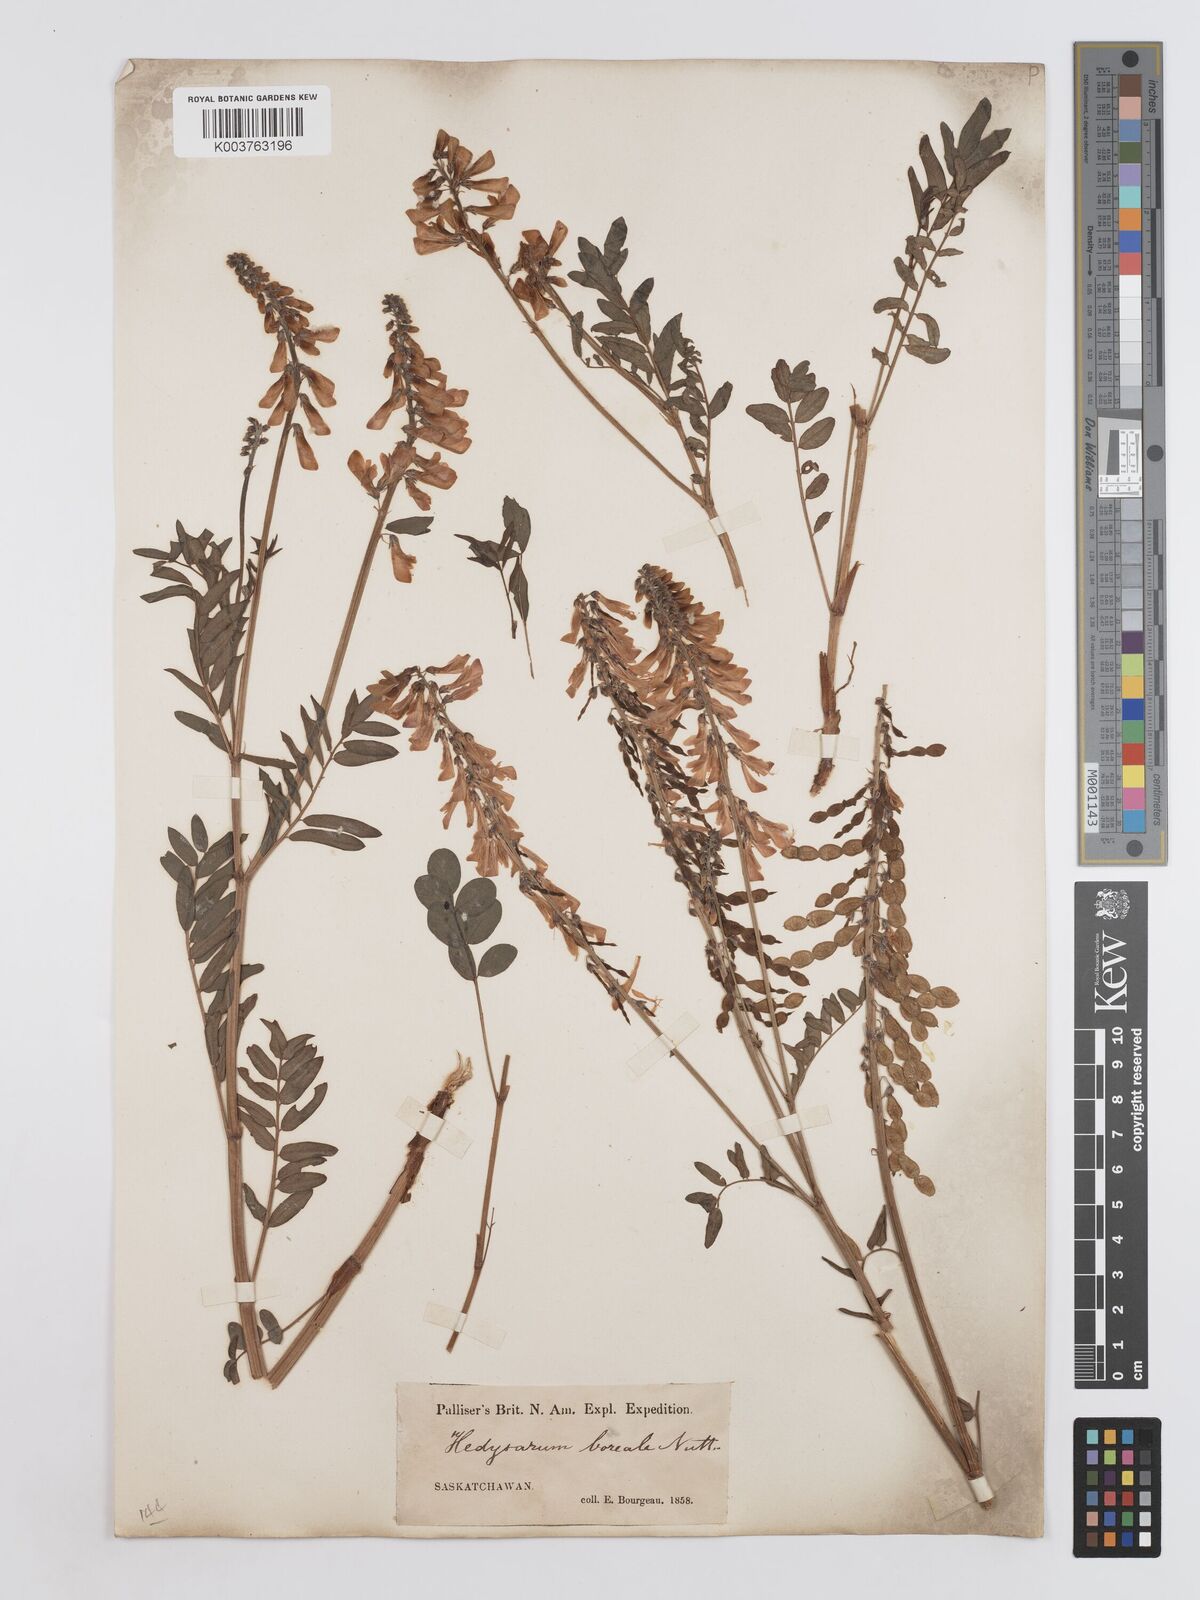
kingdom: Plantae
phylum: Tracheophyta
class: Magnoliopsida
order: Fabales
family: Fabaceae
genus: Hedysarum
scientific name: Hedysarum boreale
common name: Northern sweet-vetch
